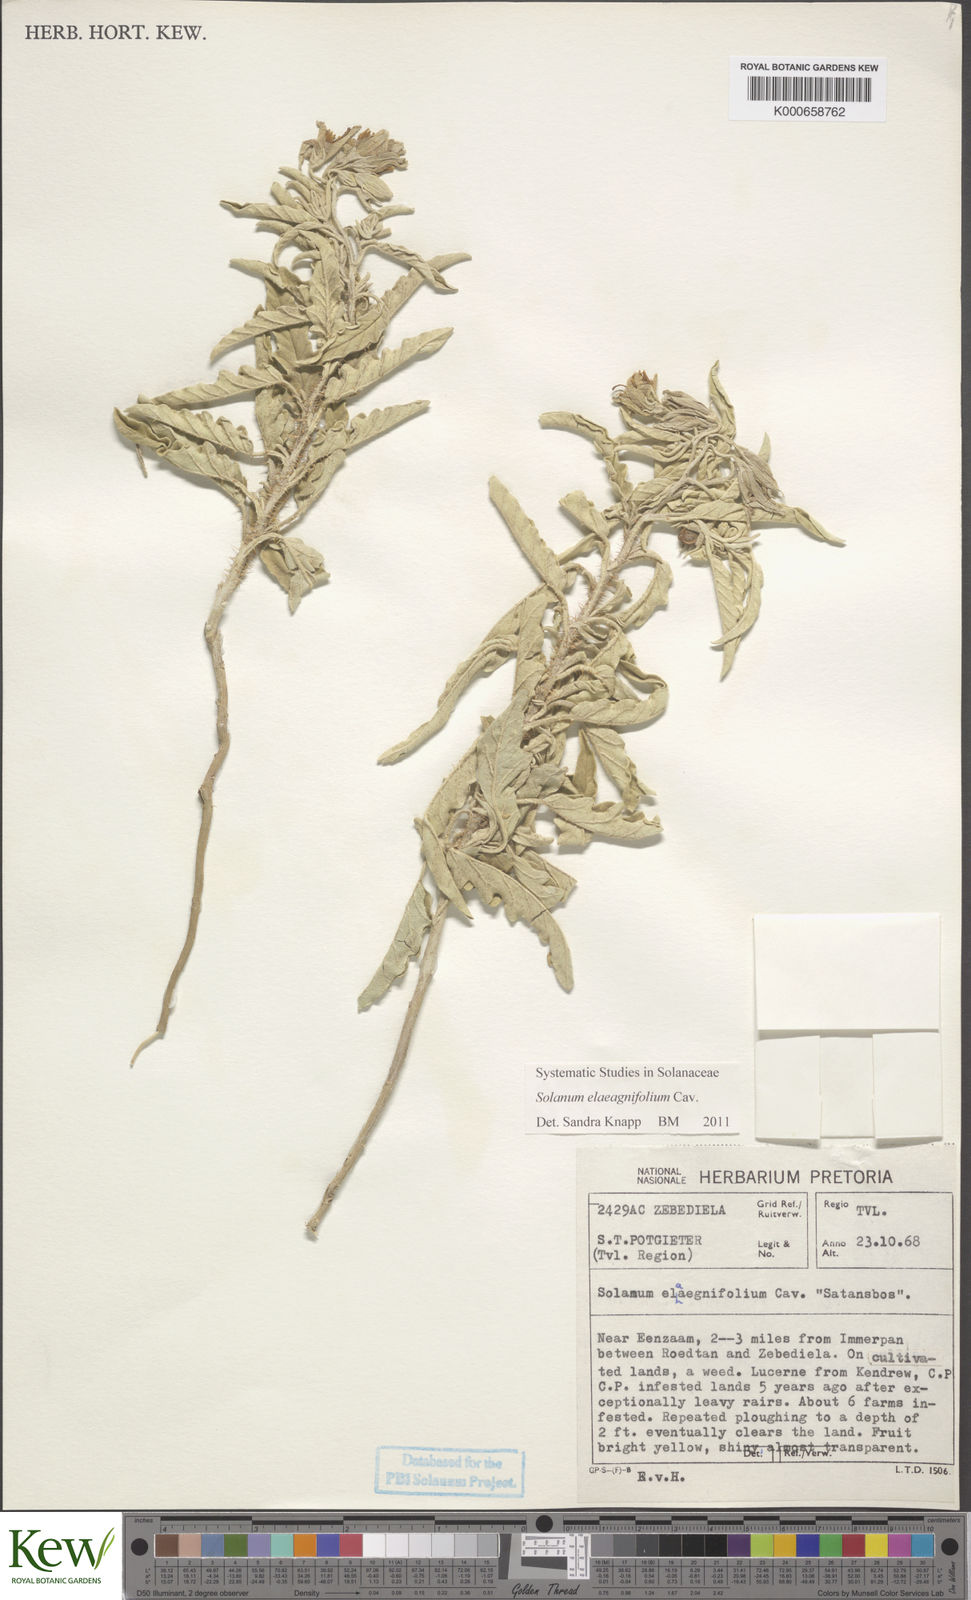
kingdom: Plantae
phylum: Tracheophyta
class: Magnoliopsida
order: Solanales
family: Solanaceae
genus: Solanum
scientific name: Solanum elaeagnifolium
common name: Silverleaf nightshade
